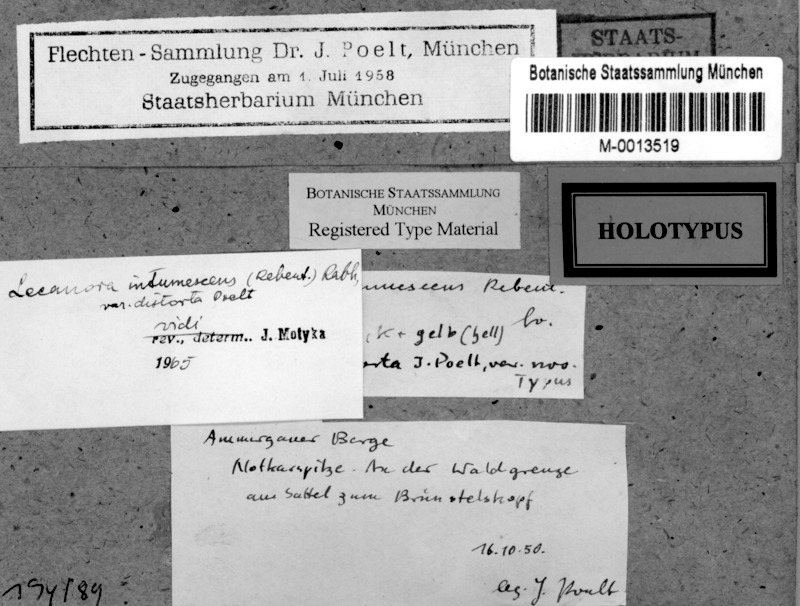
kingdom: Fungi
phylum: Ascomycota
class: Lecanoromycetes
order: Lecanorales
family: Lecanoraceae
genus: Lecanora
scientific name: Lecanora intumescens
